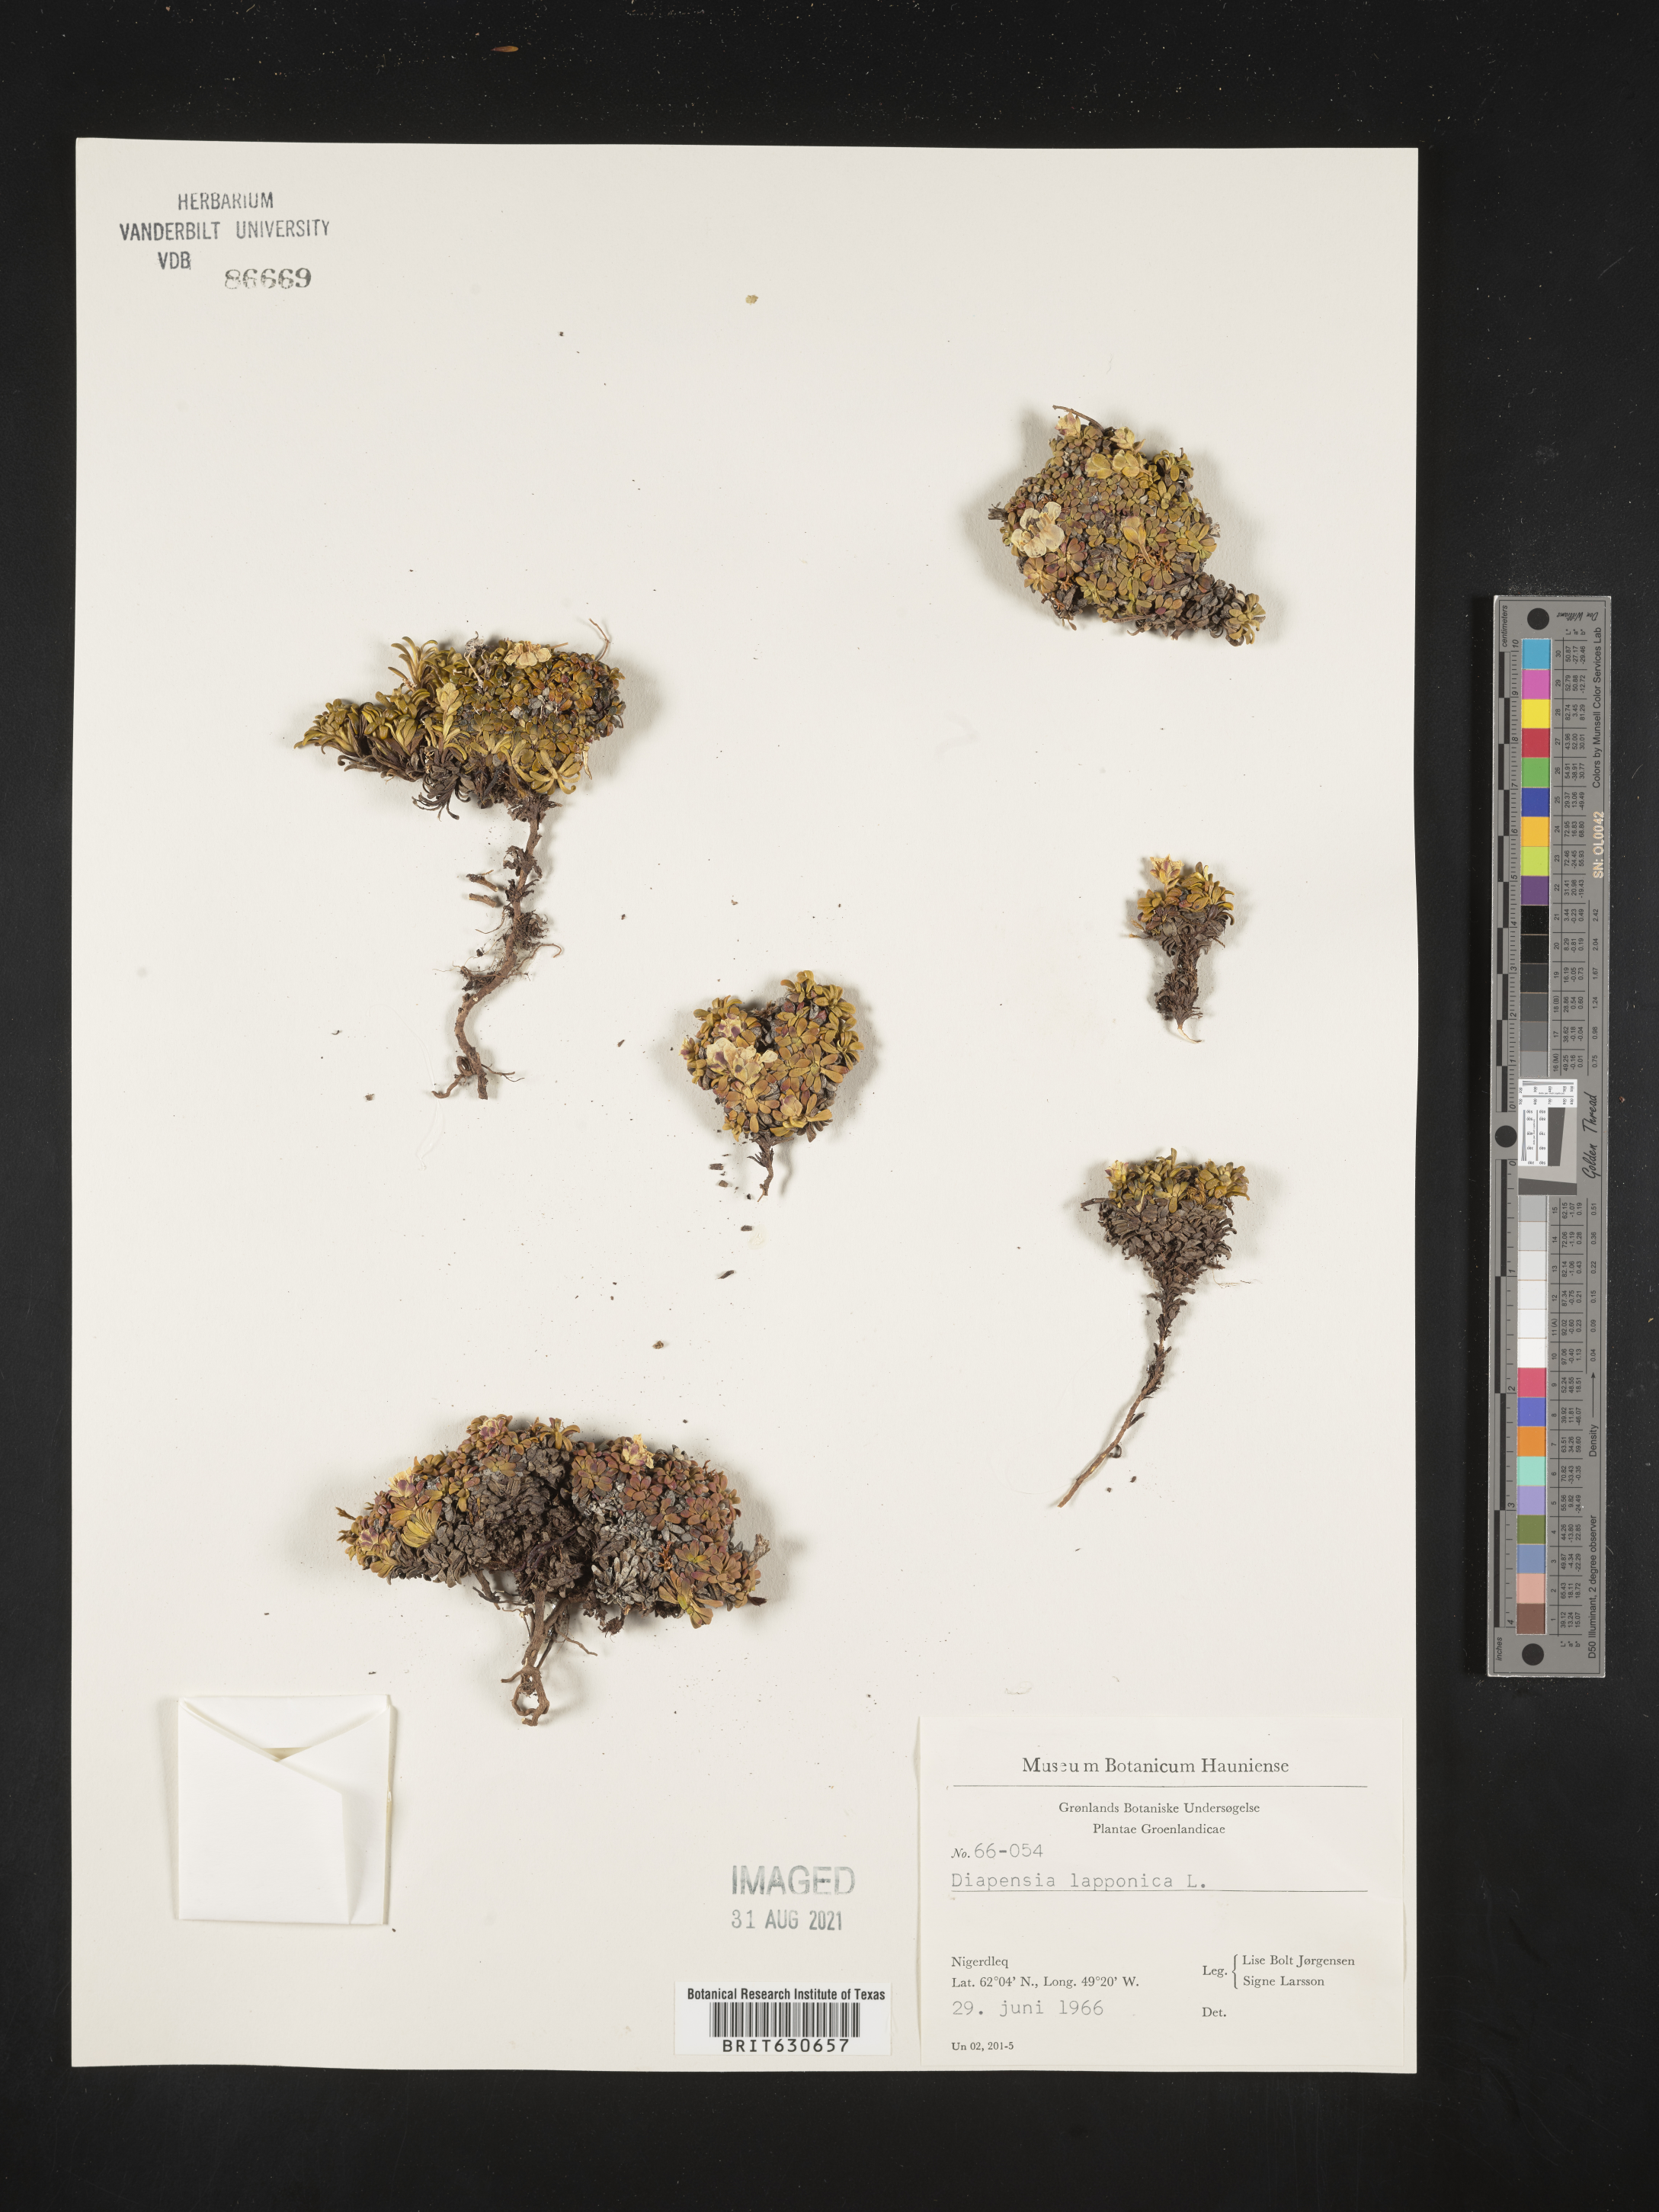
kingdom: Plantae
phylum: Tracheophyta
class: Magnoliopsida
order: Ericales
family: Diapensiaceae
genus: Diapensia
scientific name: Diapensia
